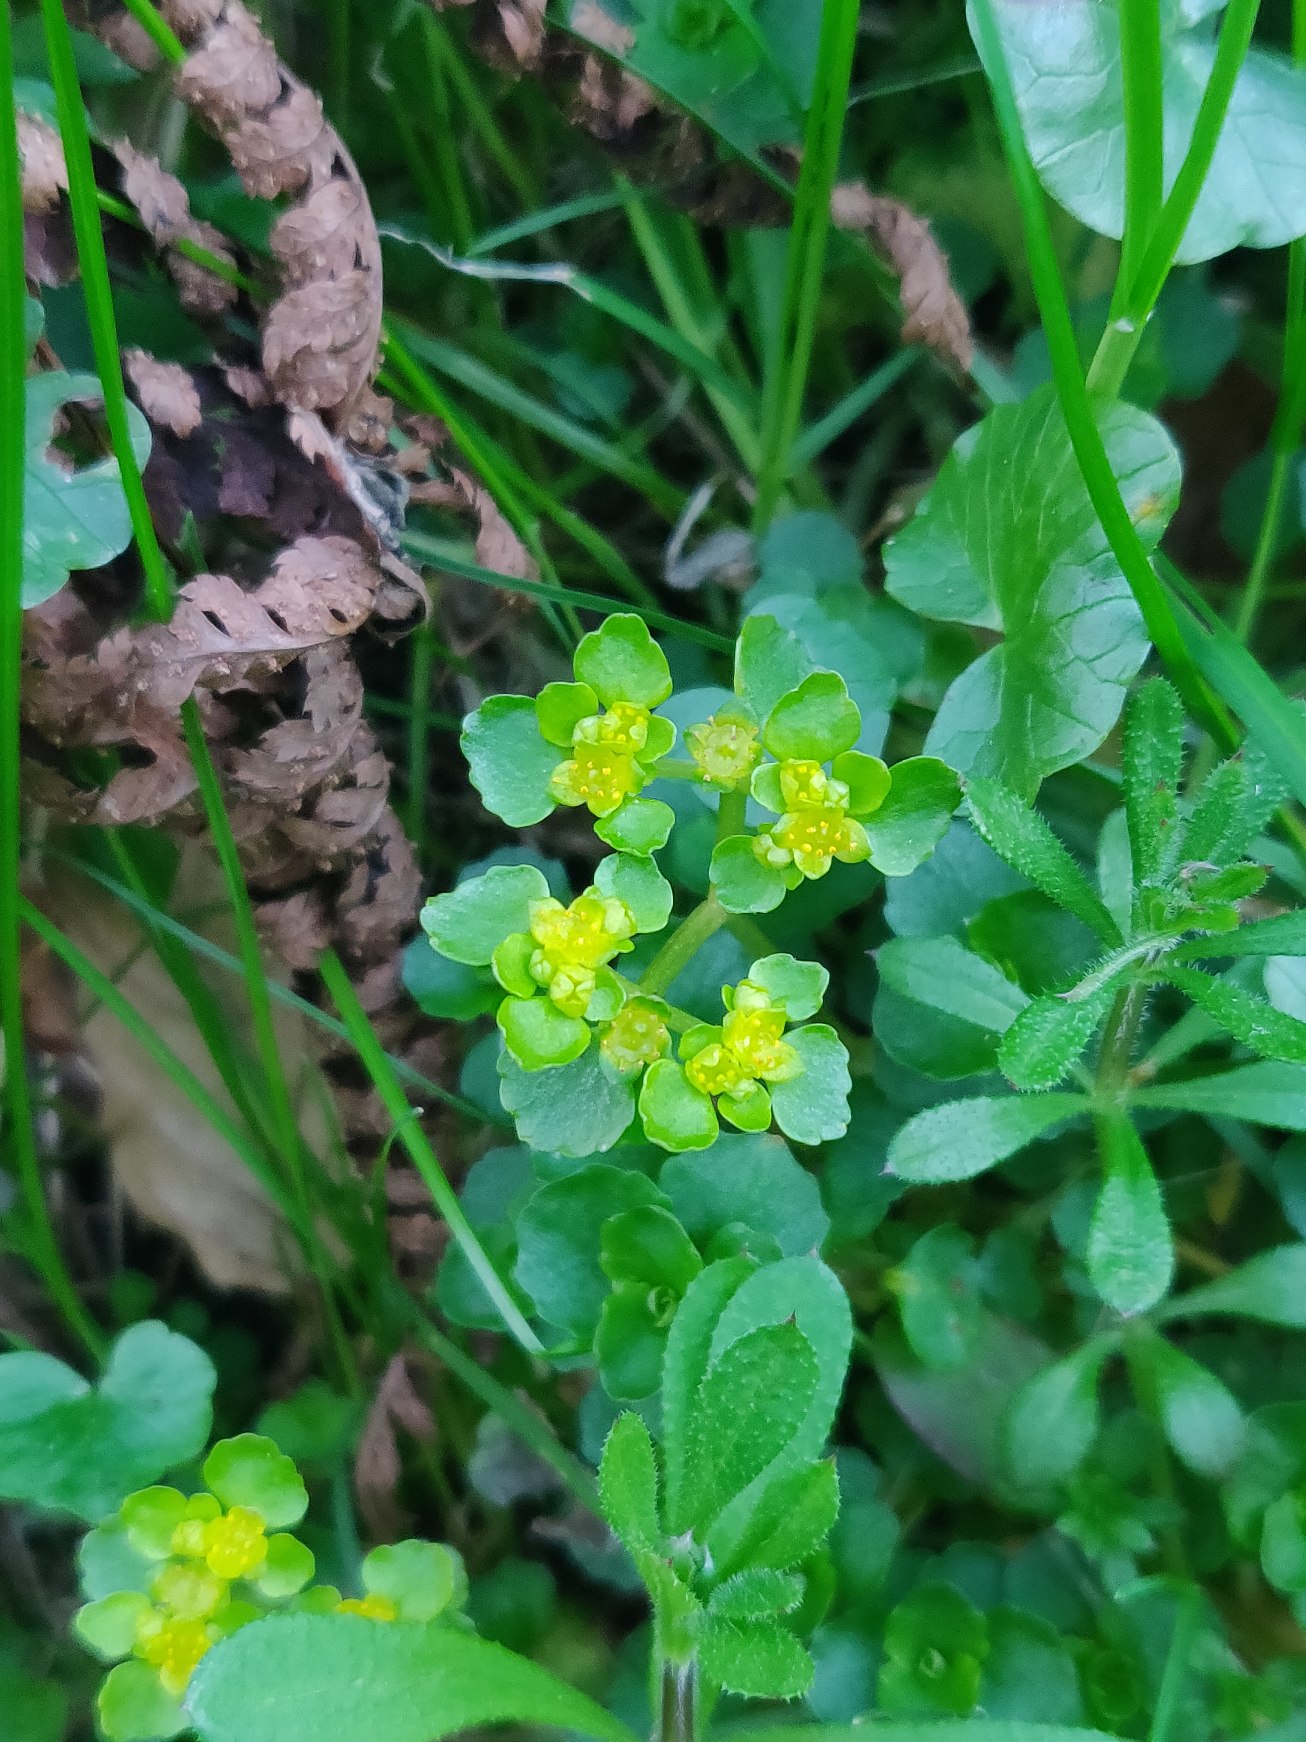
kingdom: Plantae
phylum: Tracheophyta
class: Magnoliopsida
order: Saxifragales
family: Saxifragaceae
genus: Chrysosplenium
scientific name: Chrysosplenium oppositifolium
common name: Småbladet milturt
